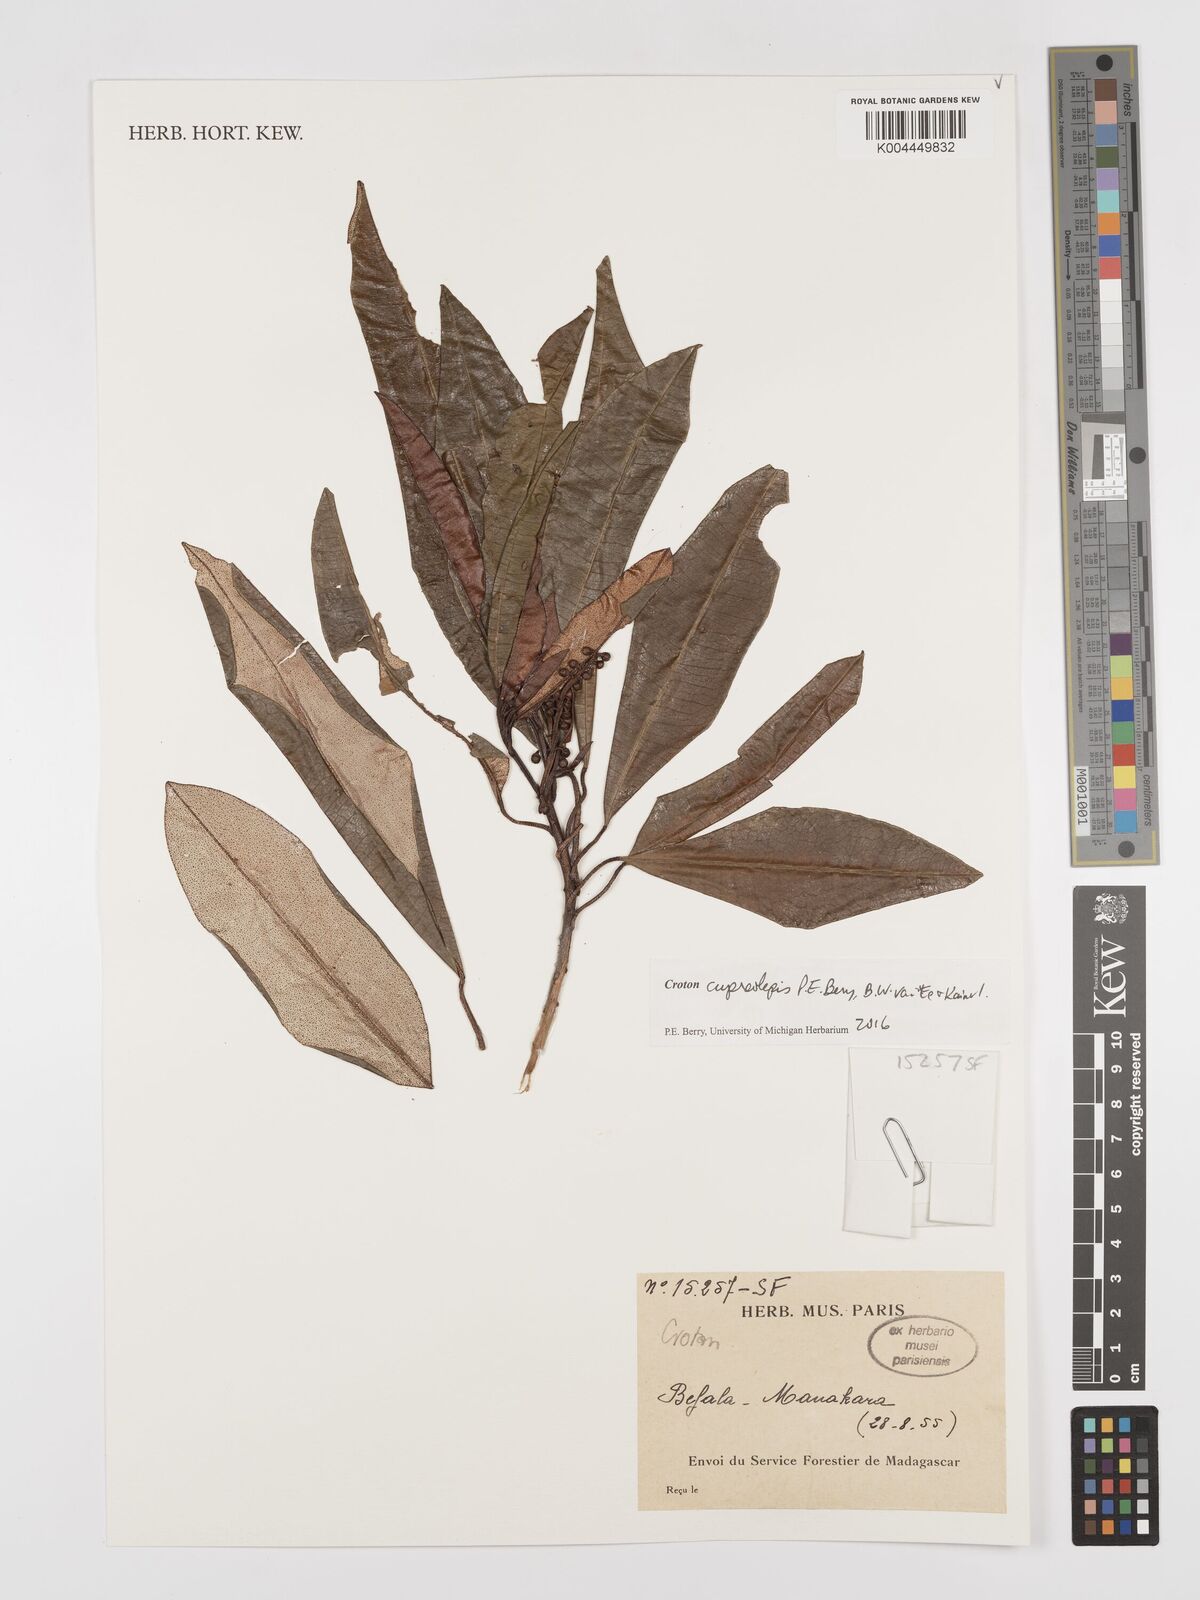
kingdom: Plantae
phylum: Tracheophyta
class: Magnoliopsida
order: Malpighiales
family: Euphorbiaceae
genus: Croton
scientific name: Croton cupreolepis
